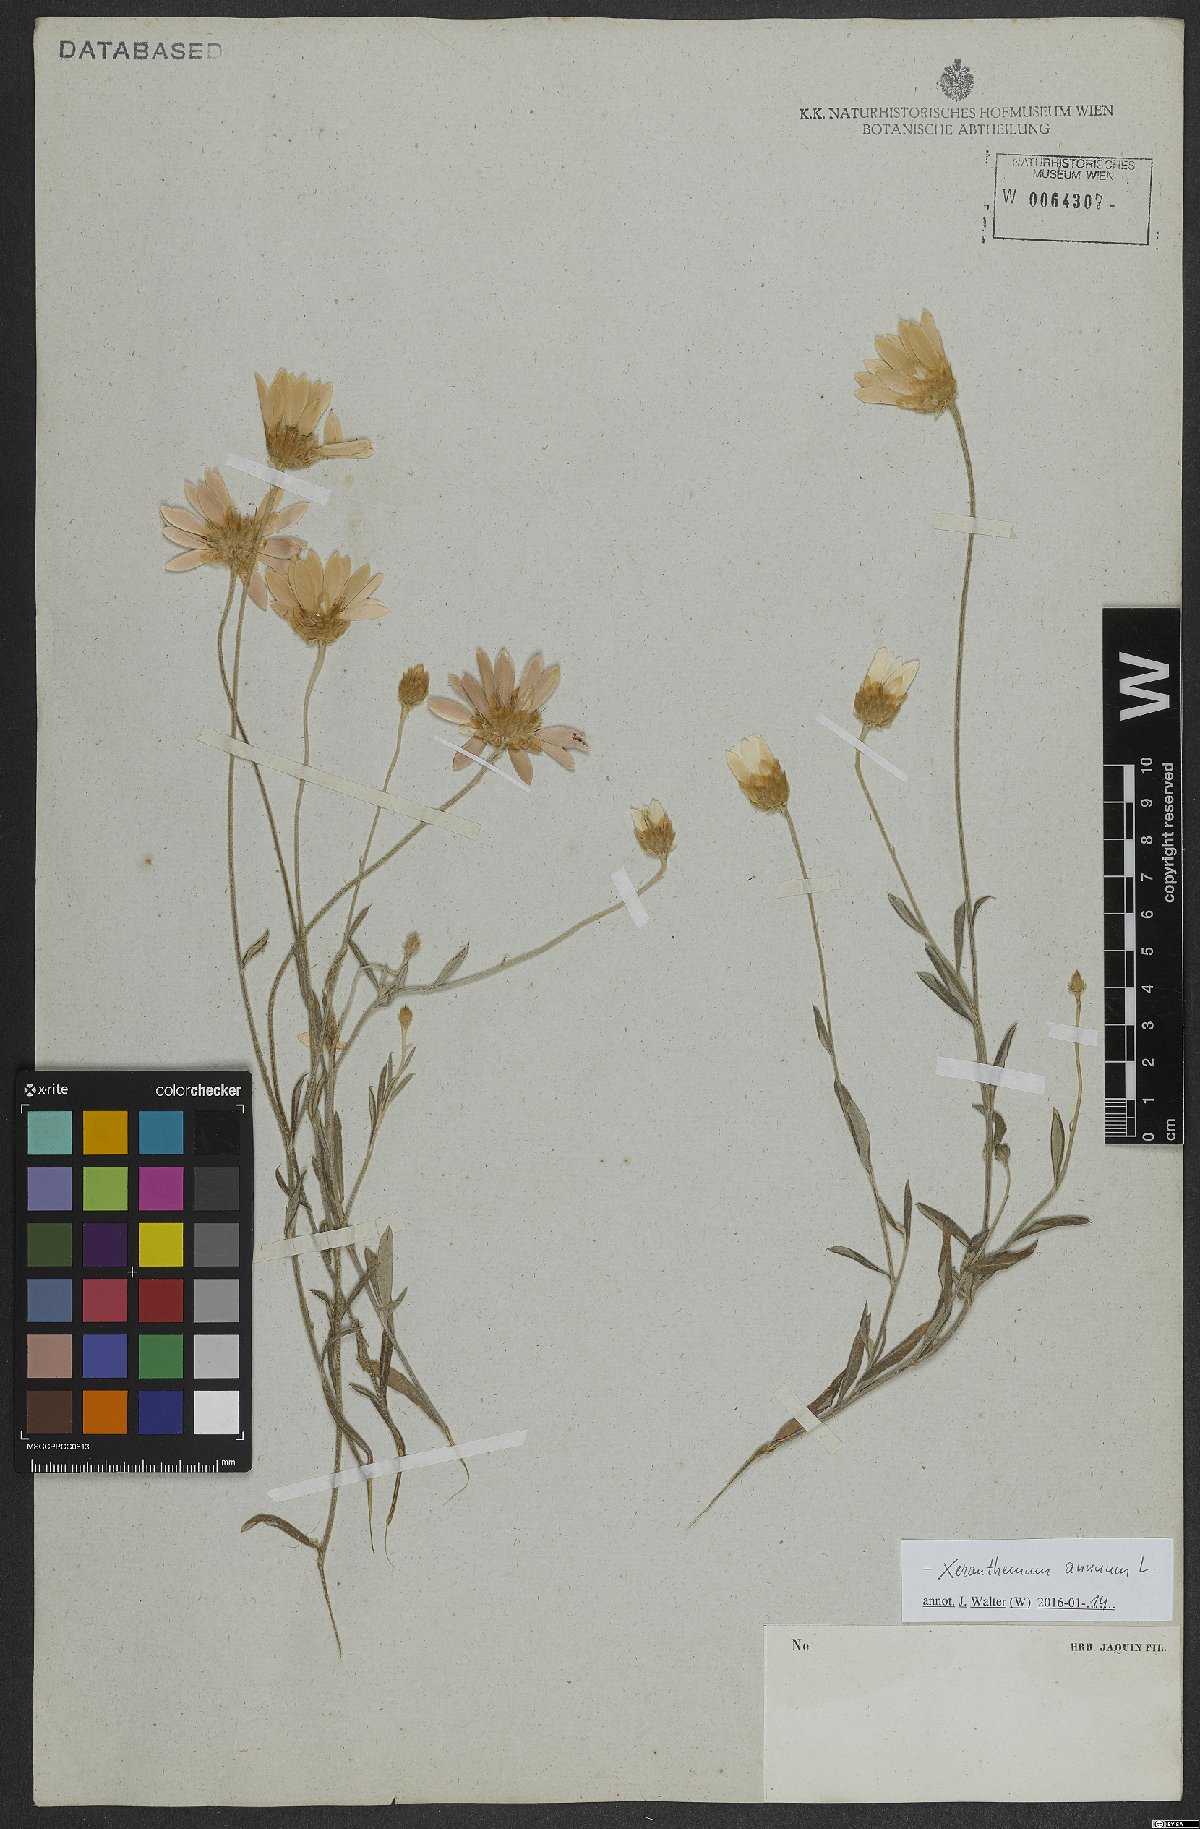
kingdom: Plantae
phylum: Tracheophyta
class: Magnoliopsida
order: Asterales
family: Asteraceae
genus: Xeranthemum
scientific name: Xeranthemum annuum
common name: Immortelle
